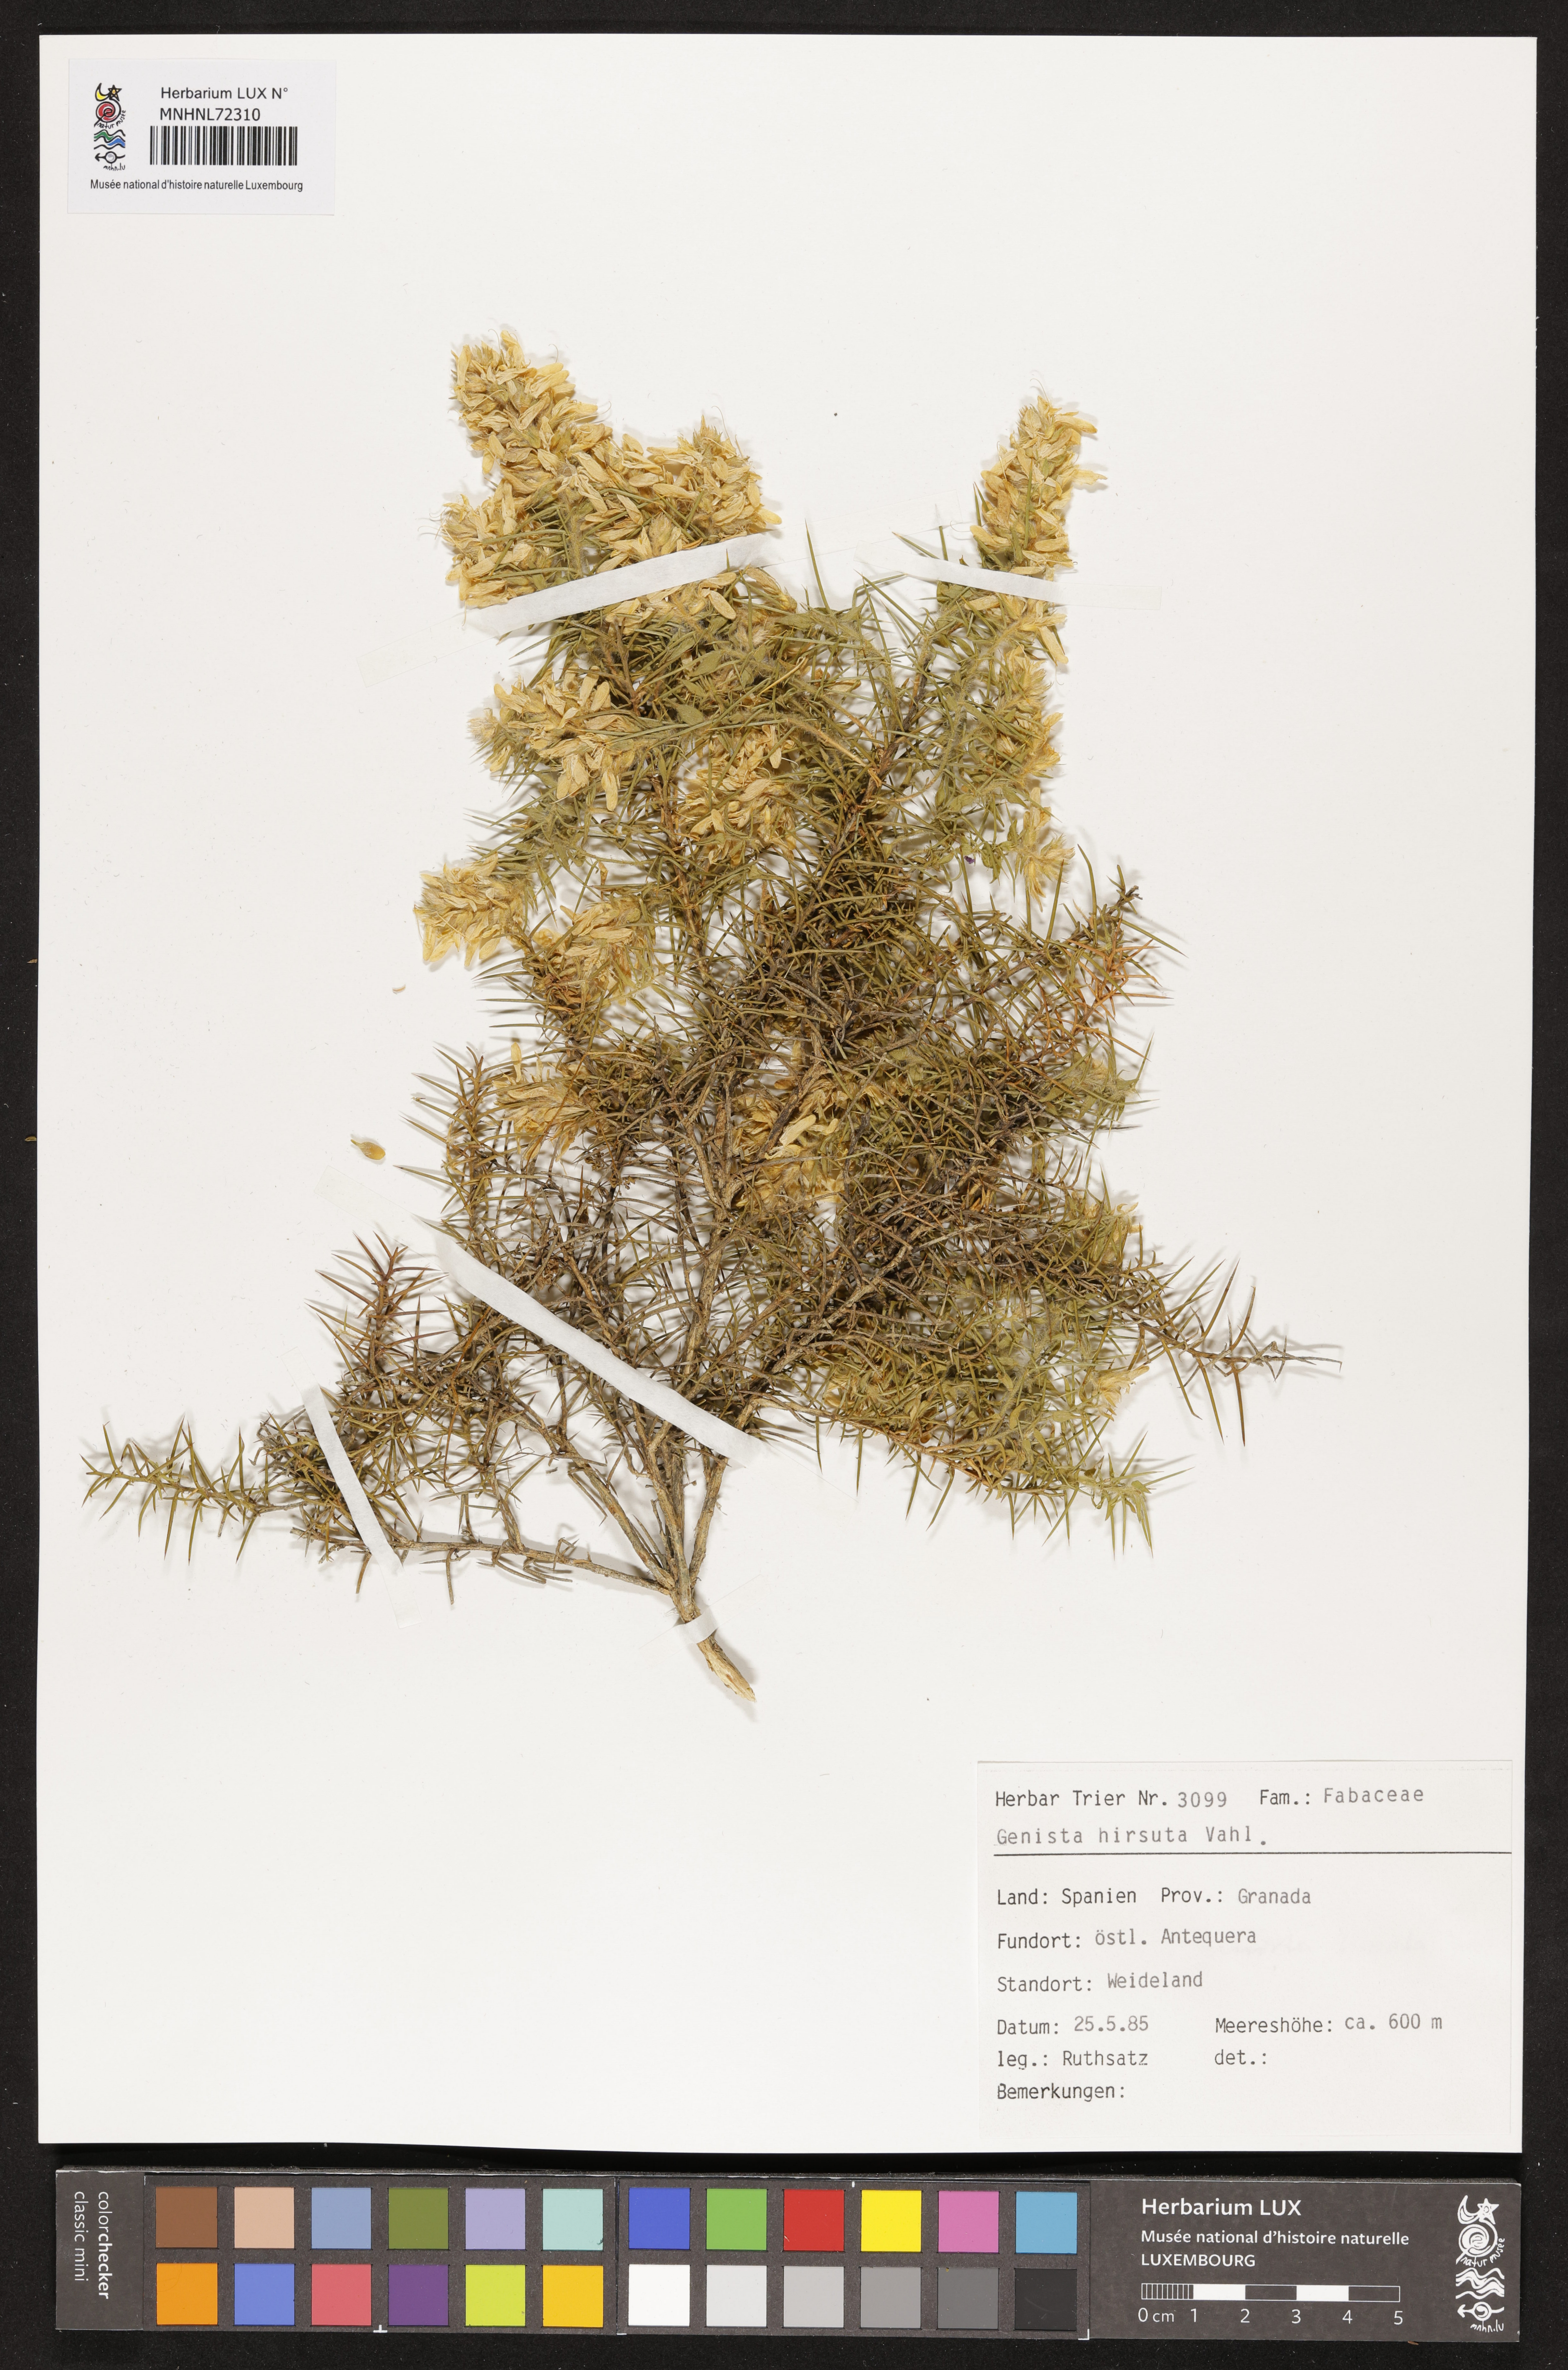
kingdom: Plantae
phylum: Tracheophyta
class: Magnoliopsida
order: Fabales
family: Fabaceae
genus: Genista
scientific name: Genista hirsuta
